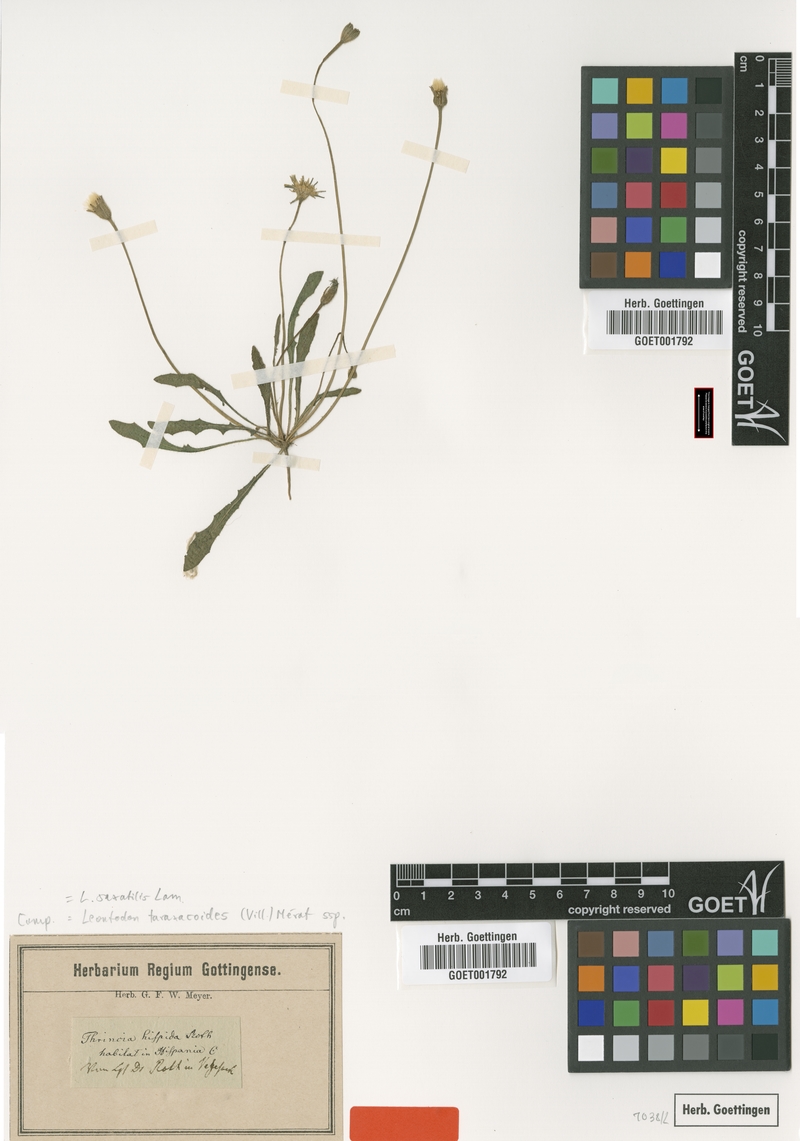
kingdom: Plantae
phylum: Tracheophyta
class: Magnoliopsida
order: Asterales
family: Asteraceae
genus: Thrincia
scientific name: Thrincia saxatilis
